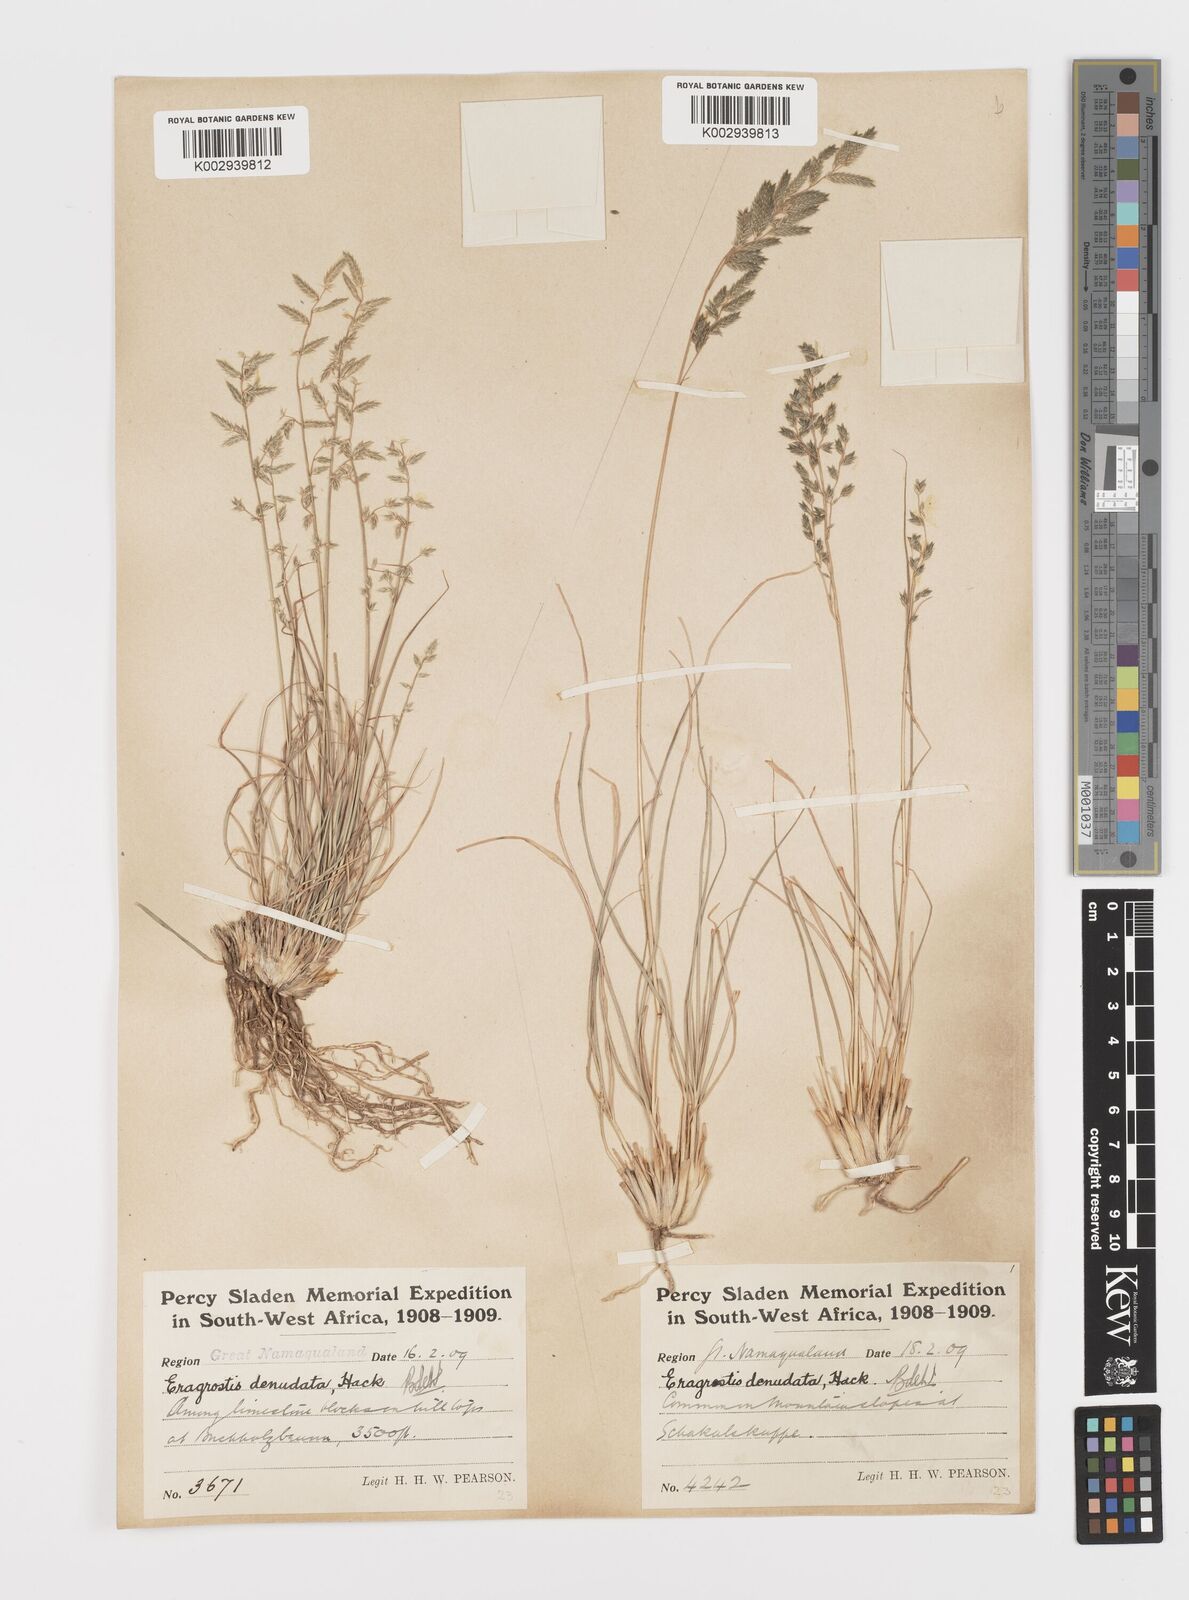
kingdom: Plantae
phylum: Tracheophyta
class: Liliopsida
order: Poales
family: Poaceae
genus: Eragrostis
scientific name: Eragrostis nindensis
